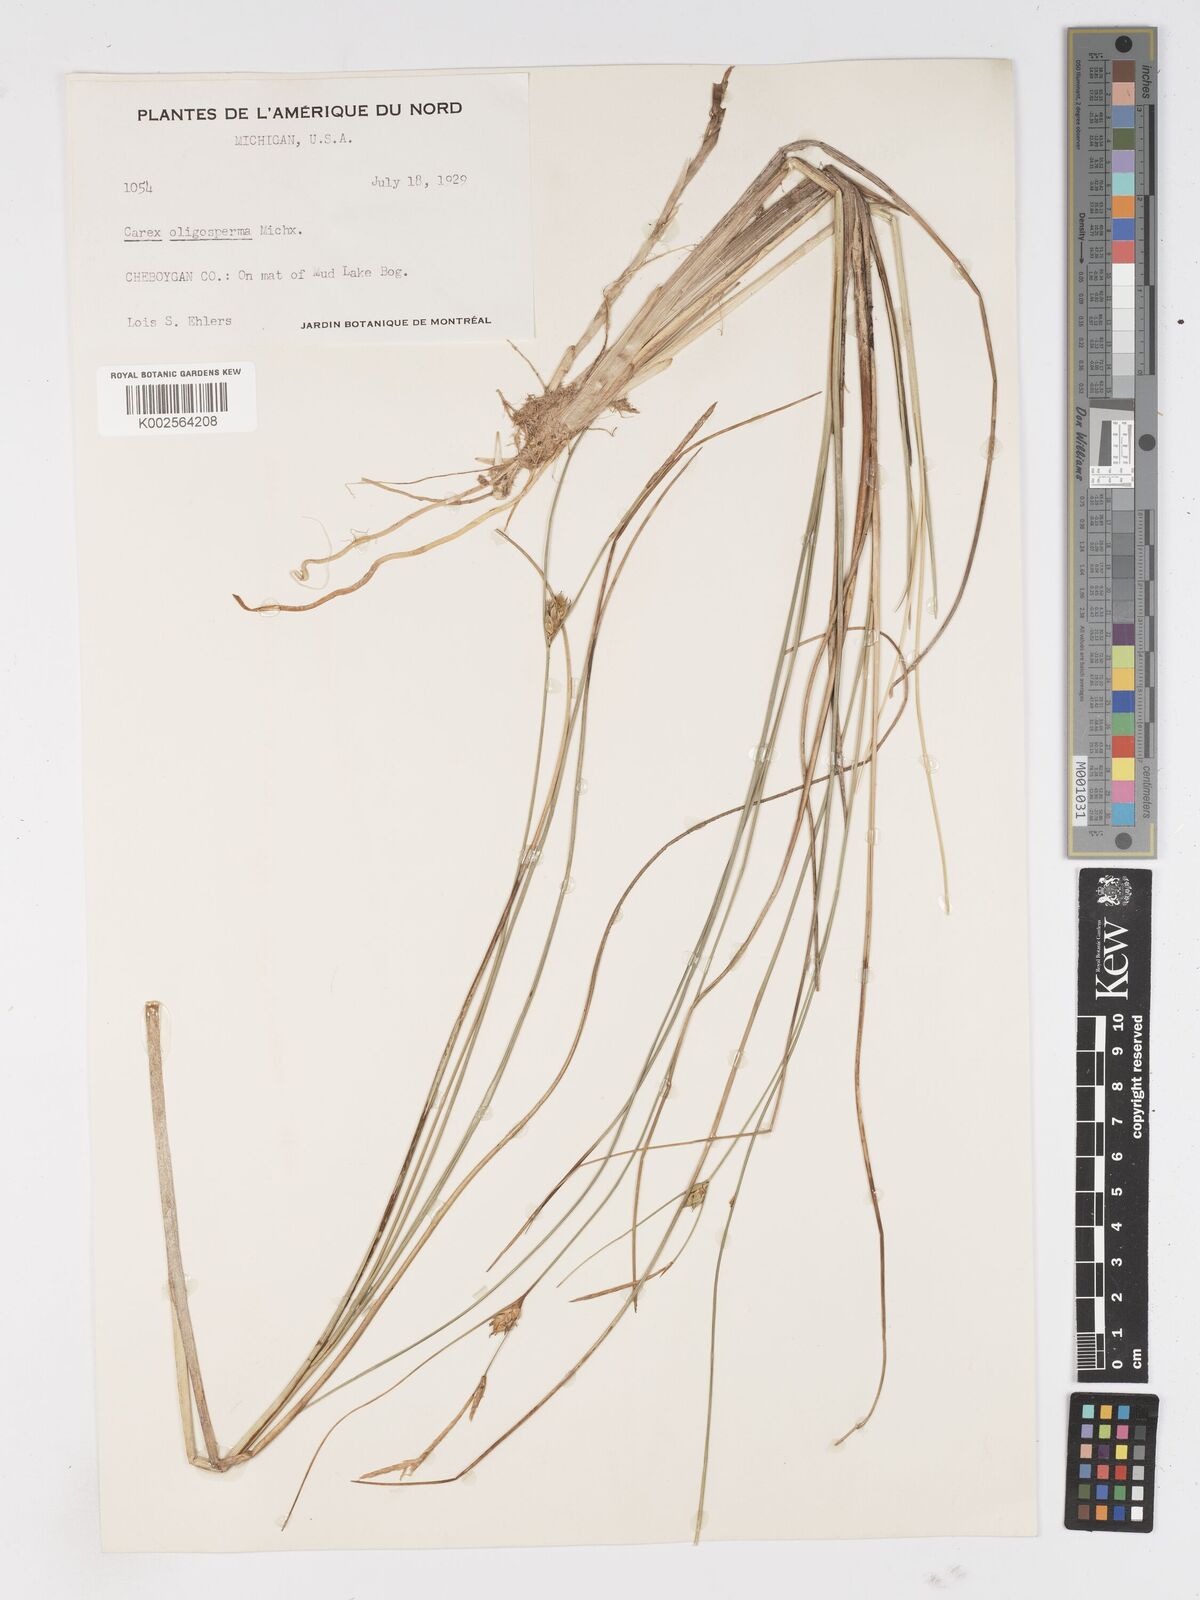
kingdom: Plantae
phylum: Tracheophyta
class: Liliopsida
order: Poales
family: Cyperaceae
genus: Carex
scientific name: Carex oligosperma
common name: Few-seed sedge
